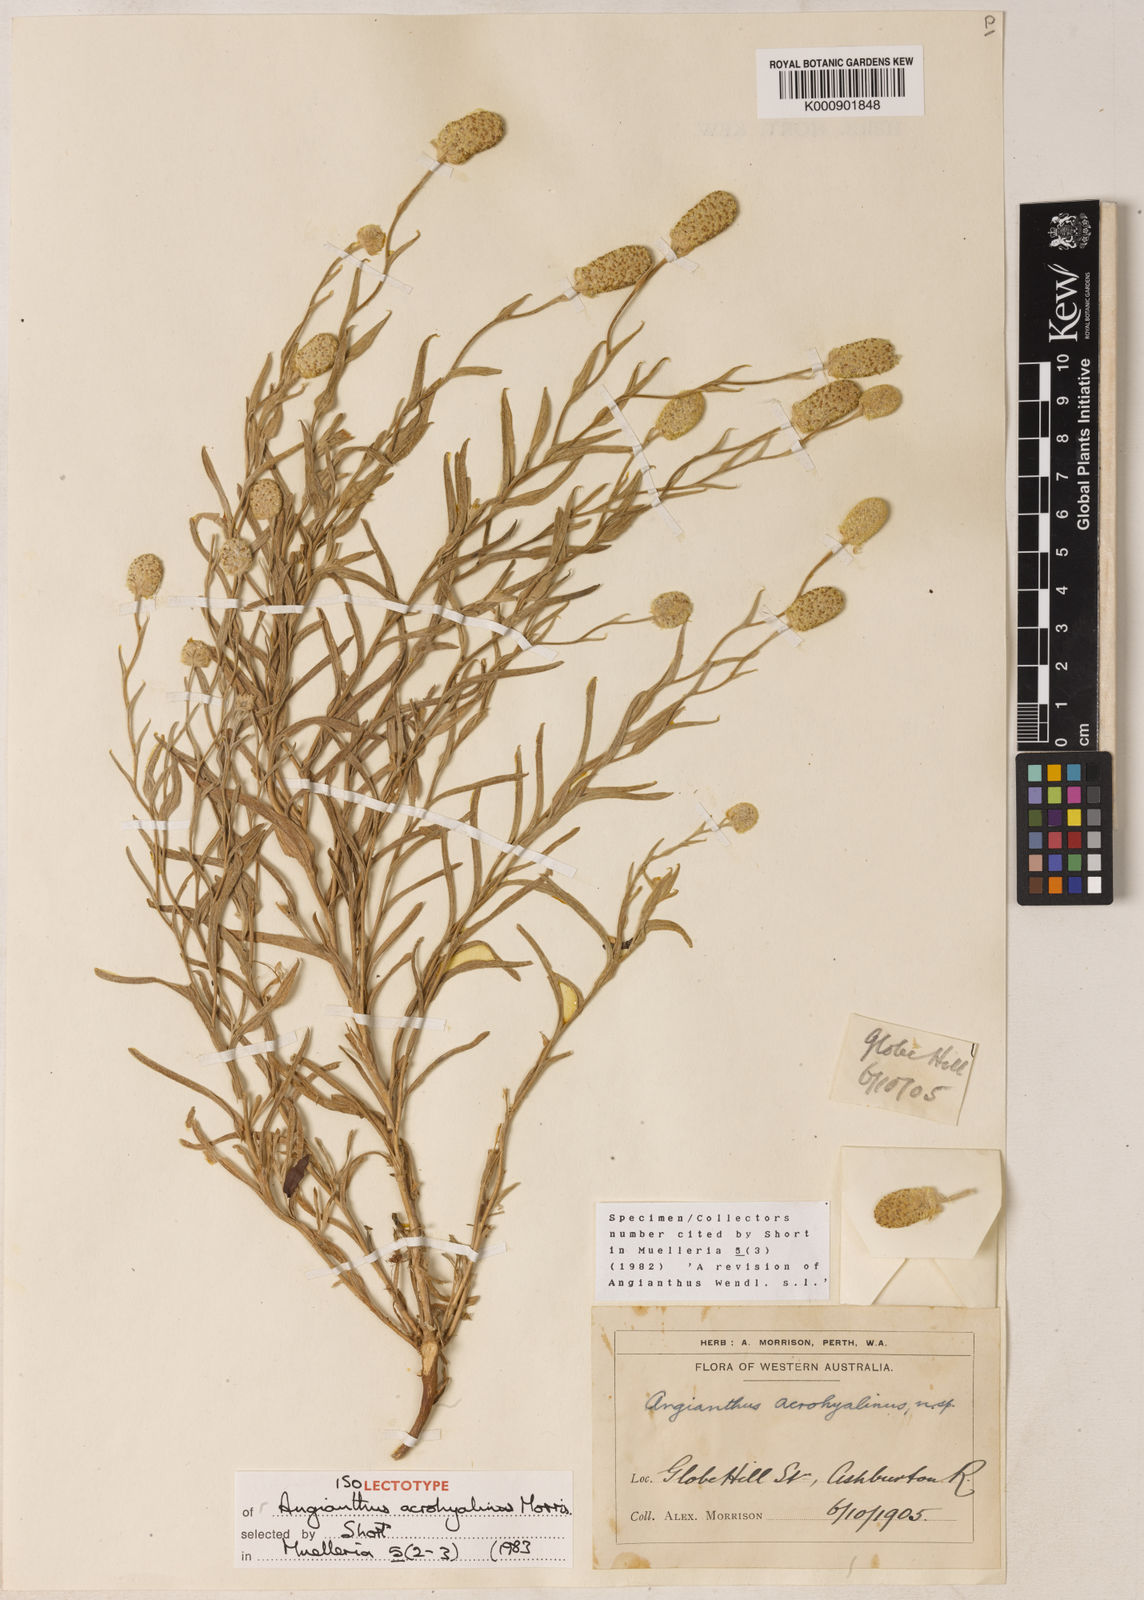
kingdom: Plantae
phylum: Tracheophyta
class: Magnoliopsida
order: Asterales
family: Asteraceae
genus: Angianthus
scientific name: Angianthus acrohyalinus
